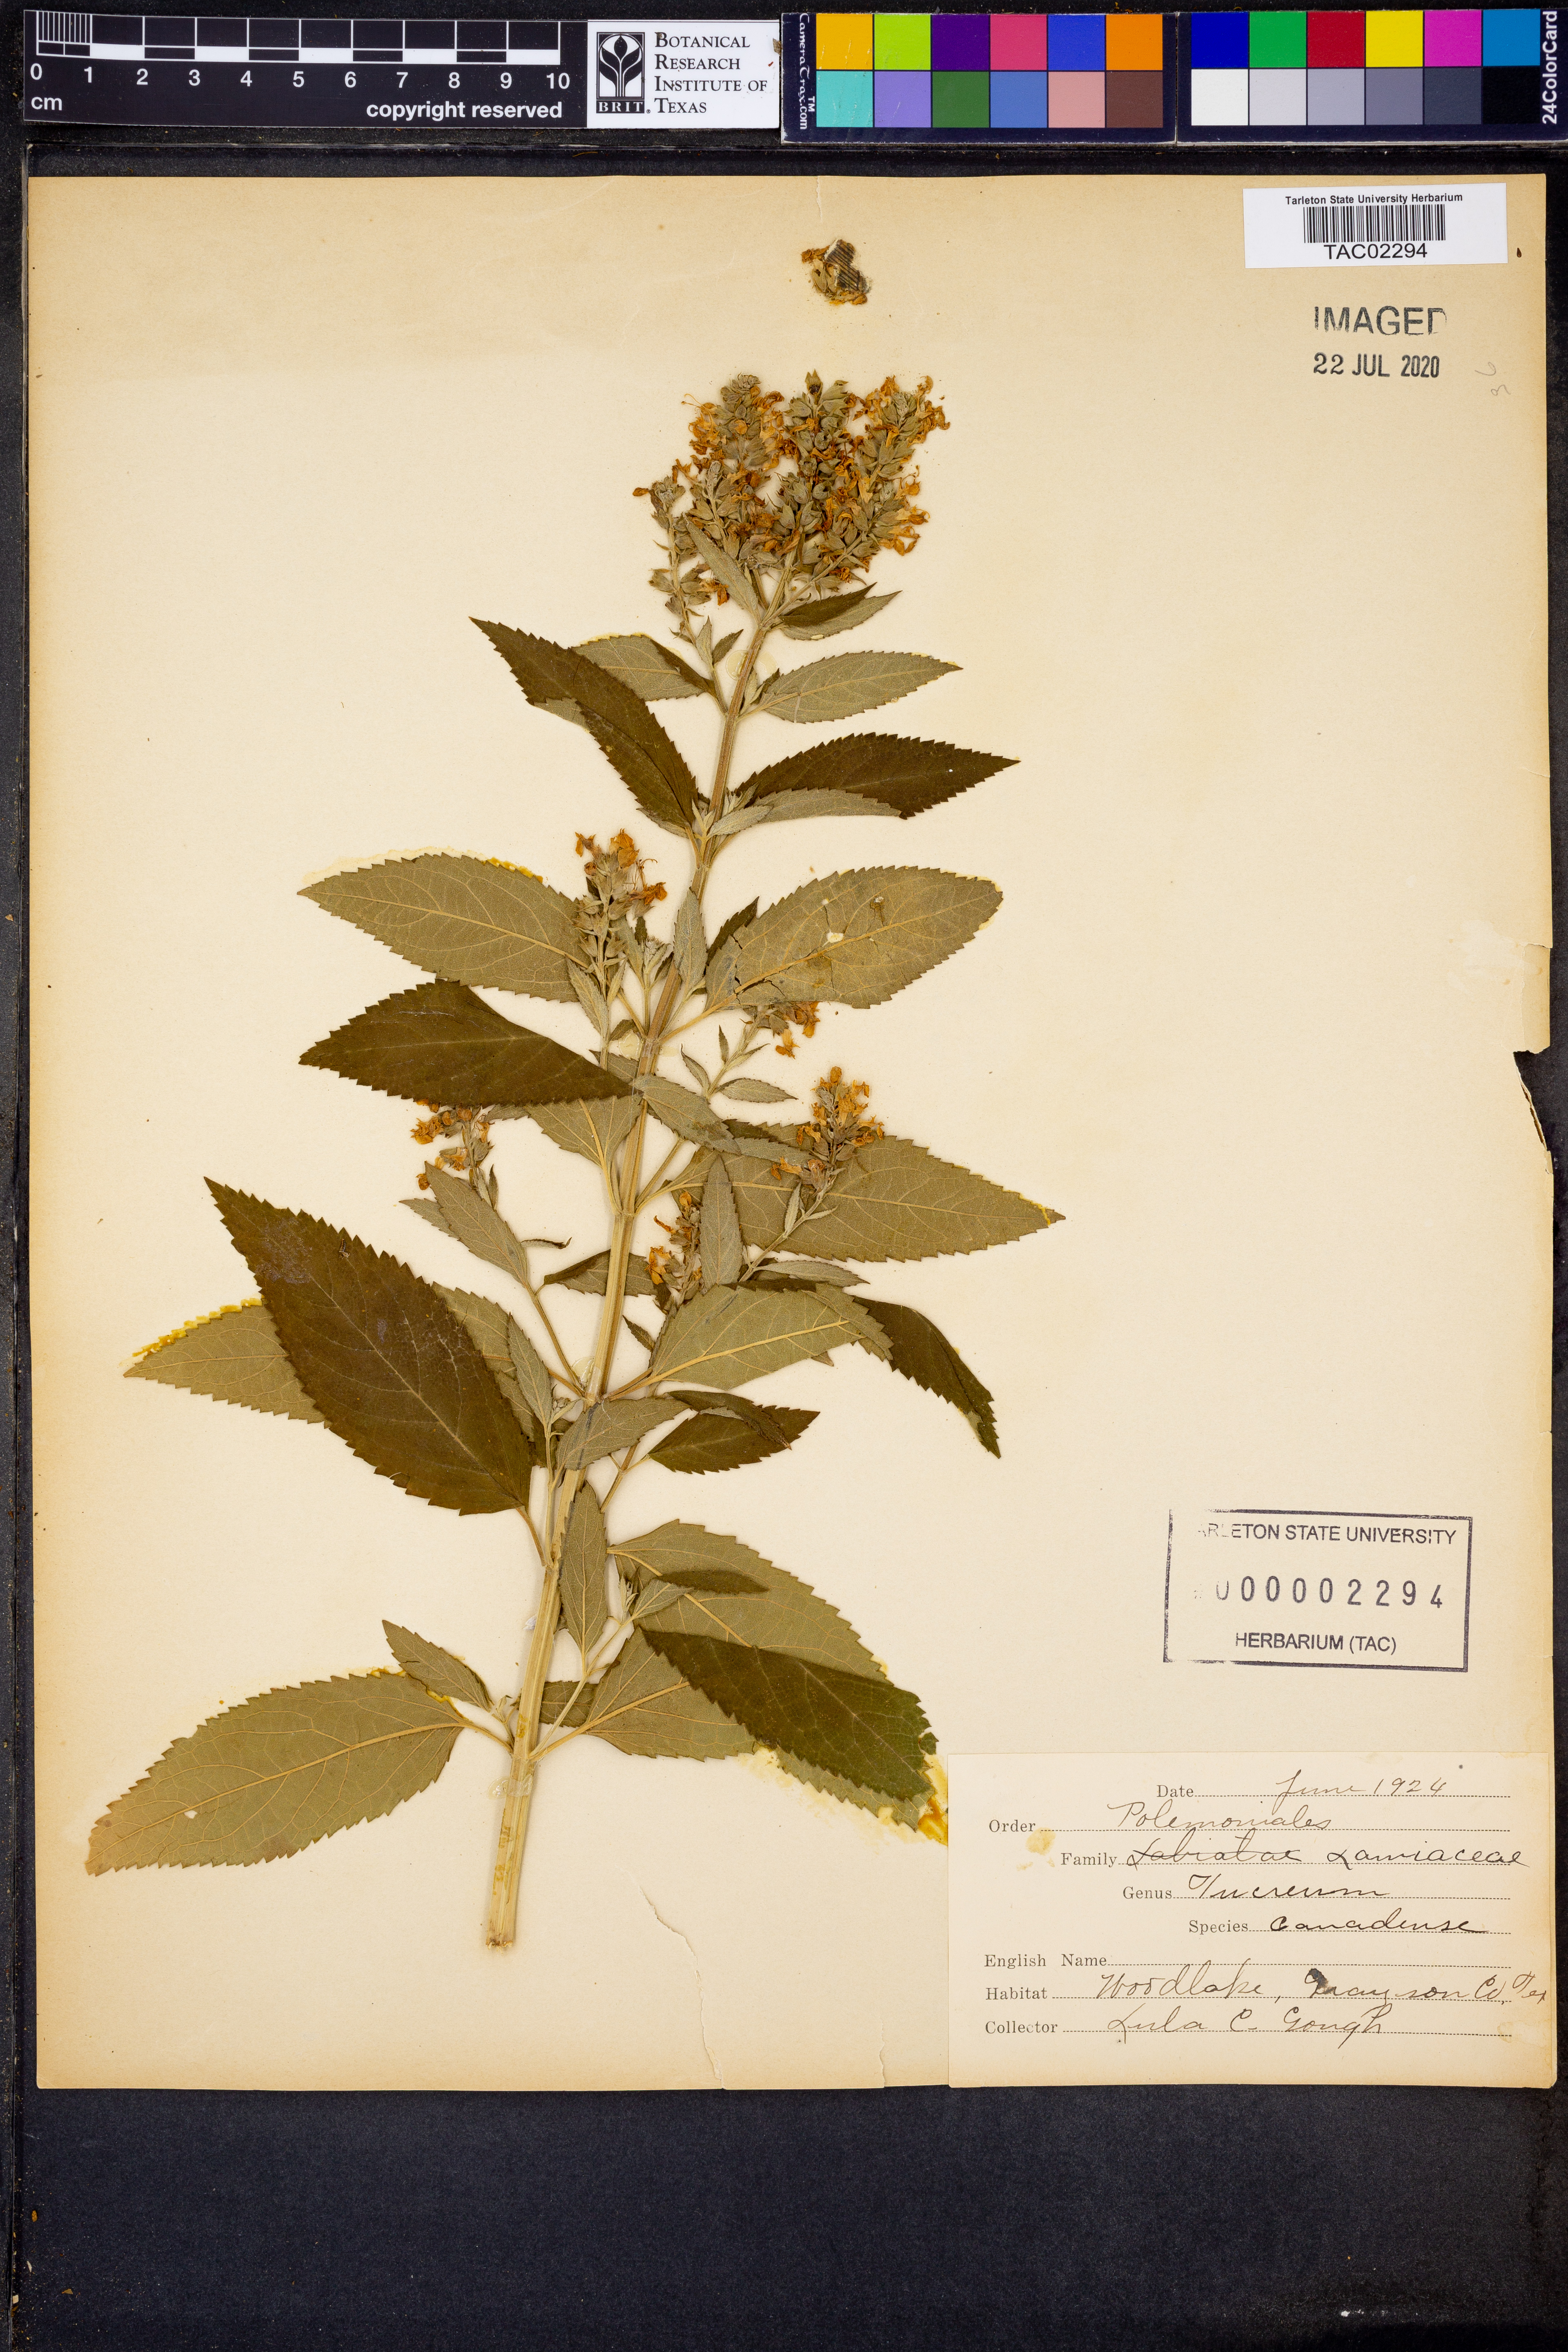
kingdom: Plantae
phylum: Tracheophyta
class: Magnoliopsida
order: Lamiales
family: Lamiaceae
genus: Teucrium
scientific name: Teucrium canadense
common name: American germander
